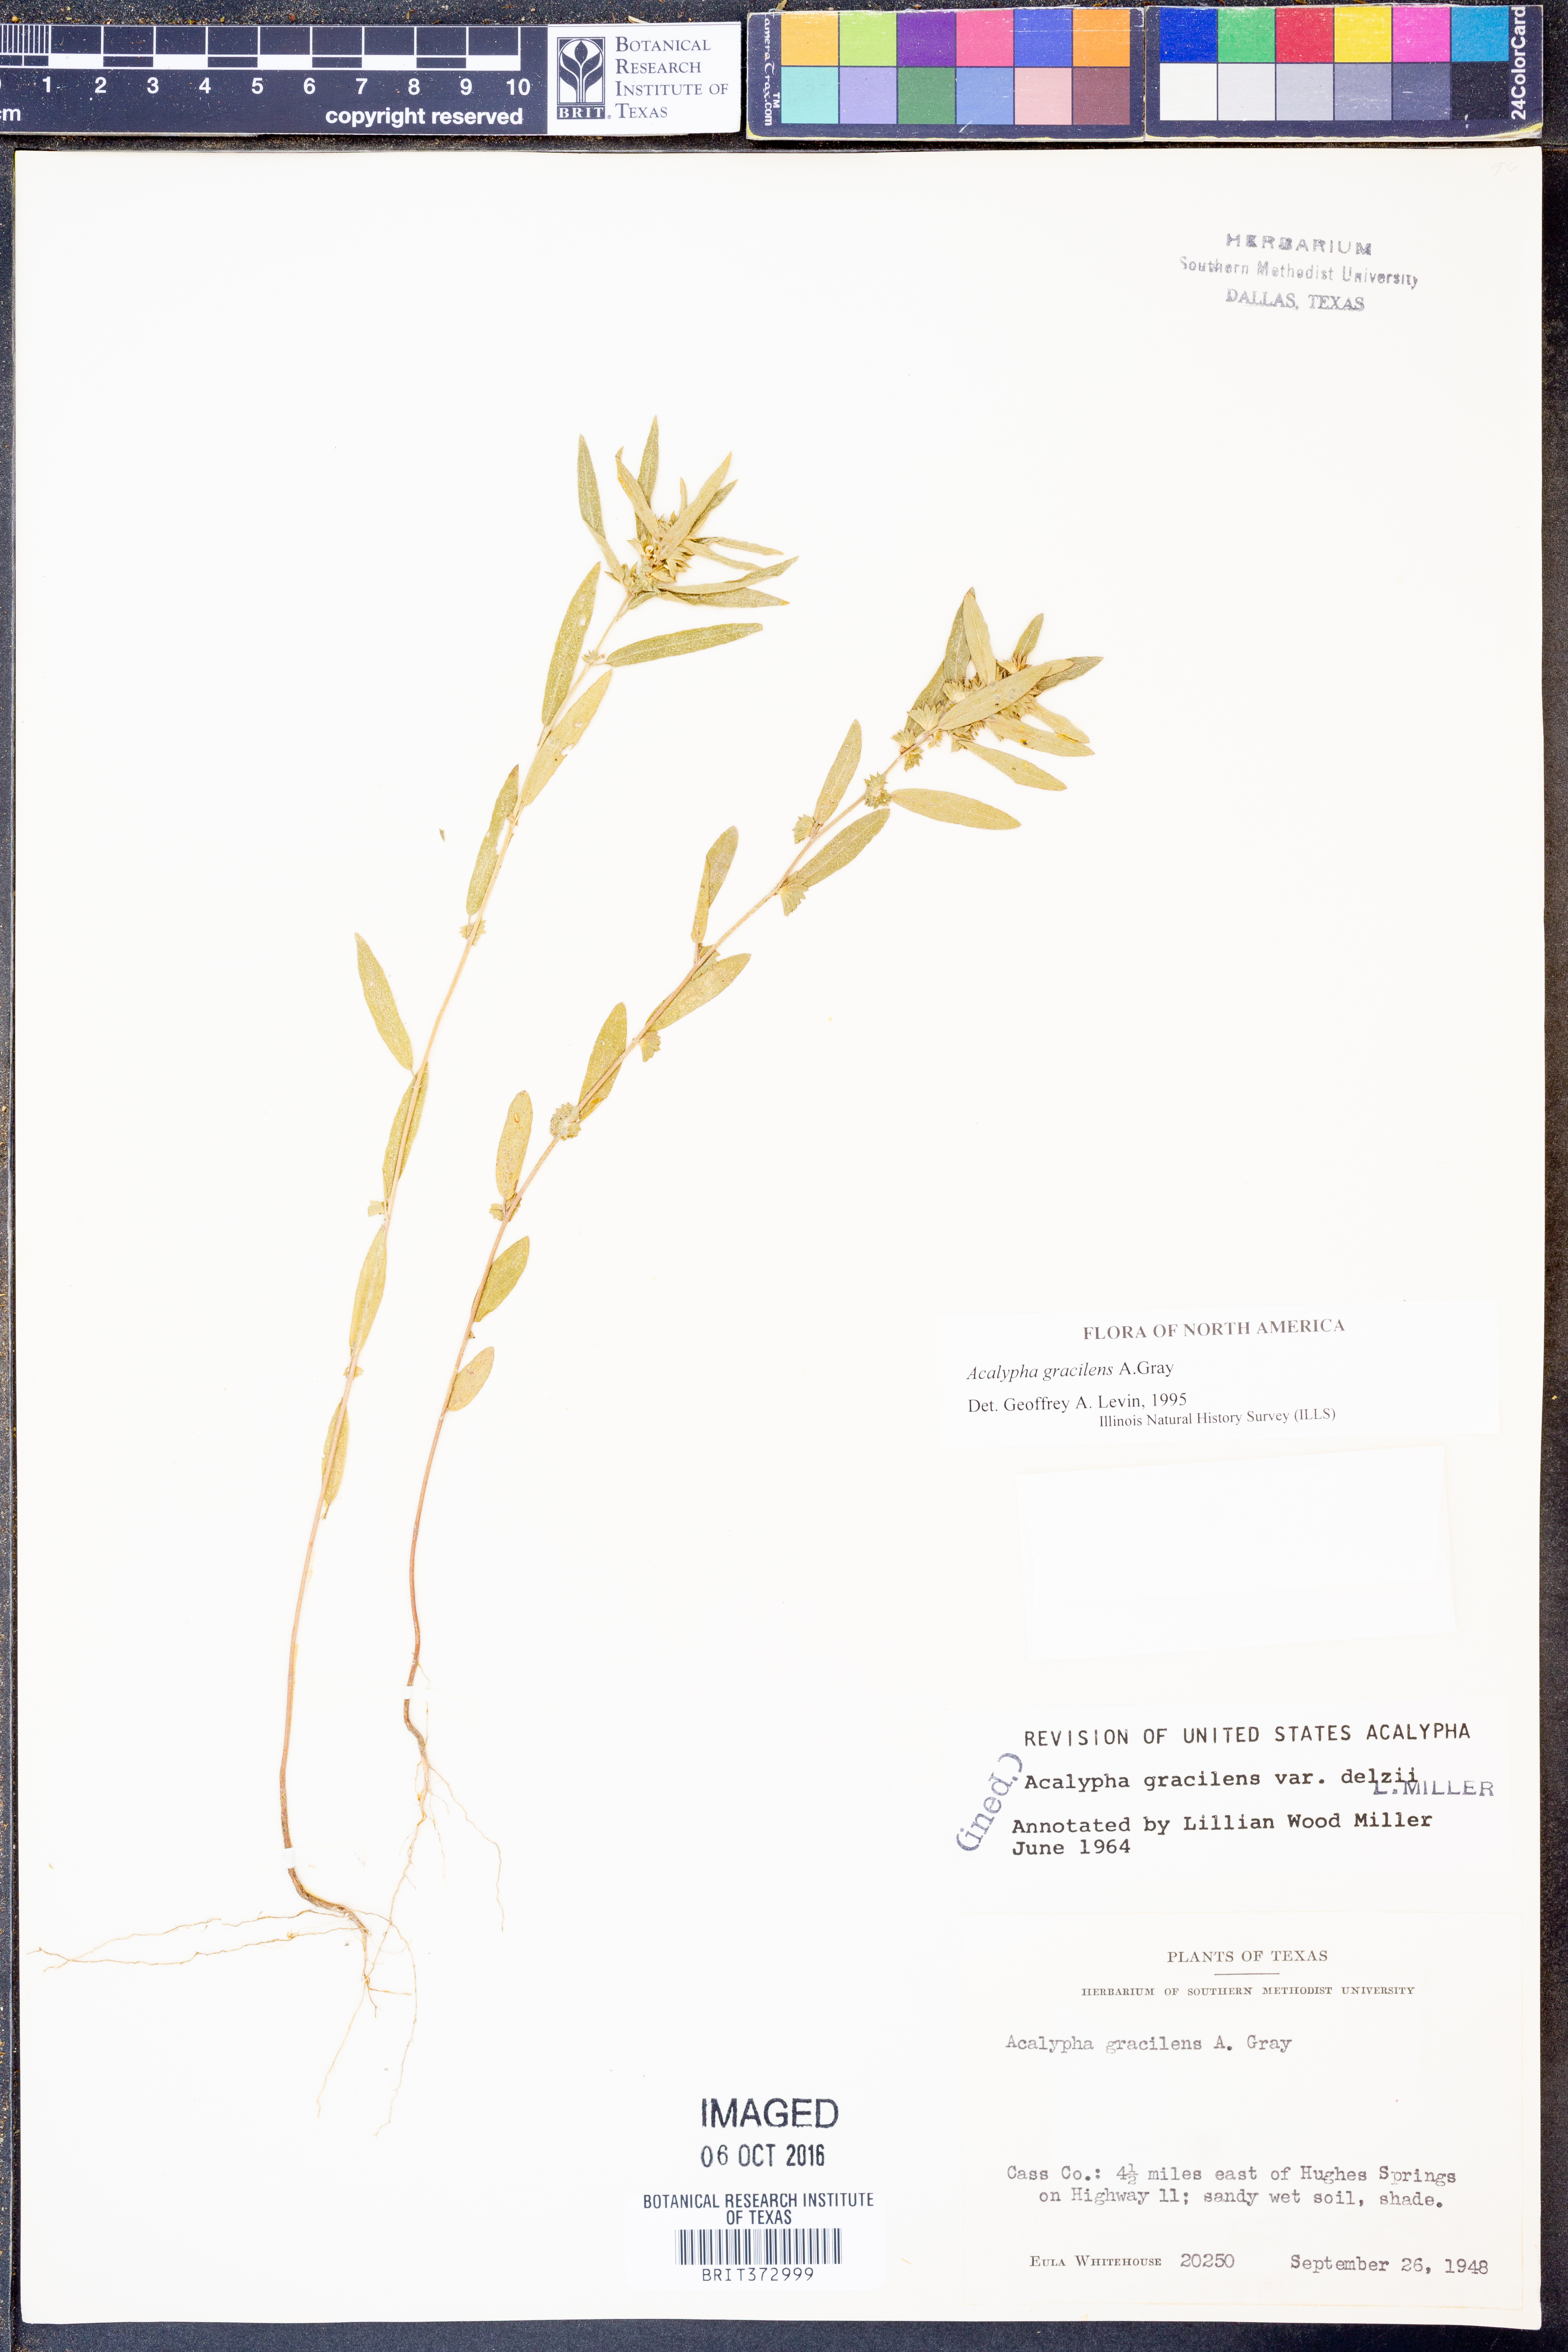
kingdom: Plantae
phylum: Tracheophyta
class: Magnoliopsida
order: Malpighiales
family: Euphorbiaceae
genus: Acalypha
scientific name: Acalypha gracilens
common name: Slender three-seeded mercury
